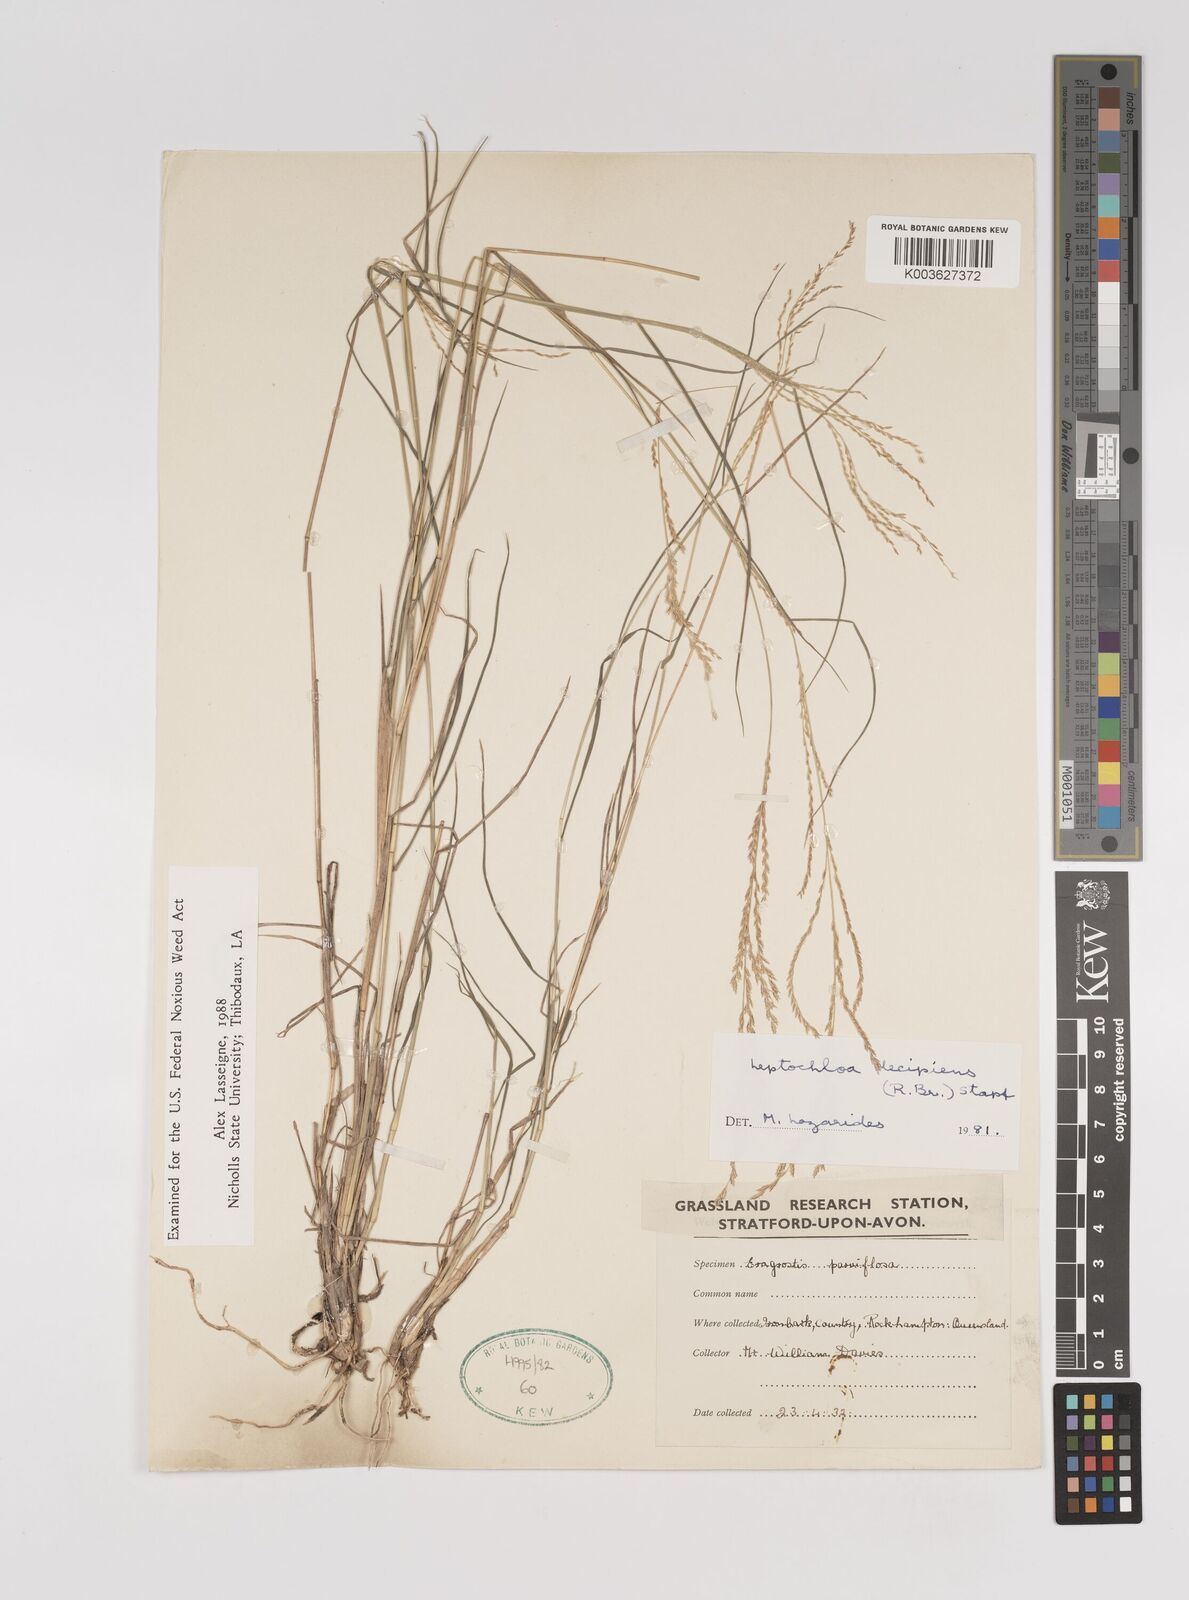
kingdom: Plantae
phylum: Tracheophyta
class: Liliopsida
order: Poales
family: Poaceae
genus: Leptochloa
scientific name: Leptochloa decipiens
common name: Australian sprangletop
